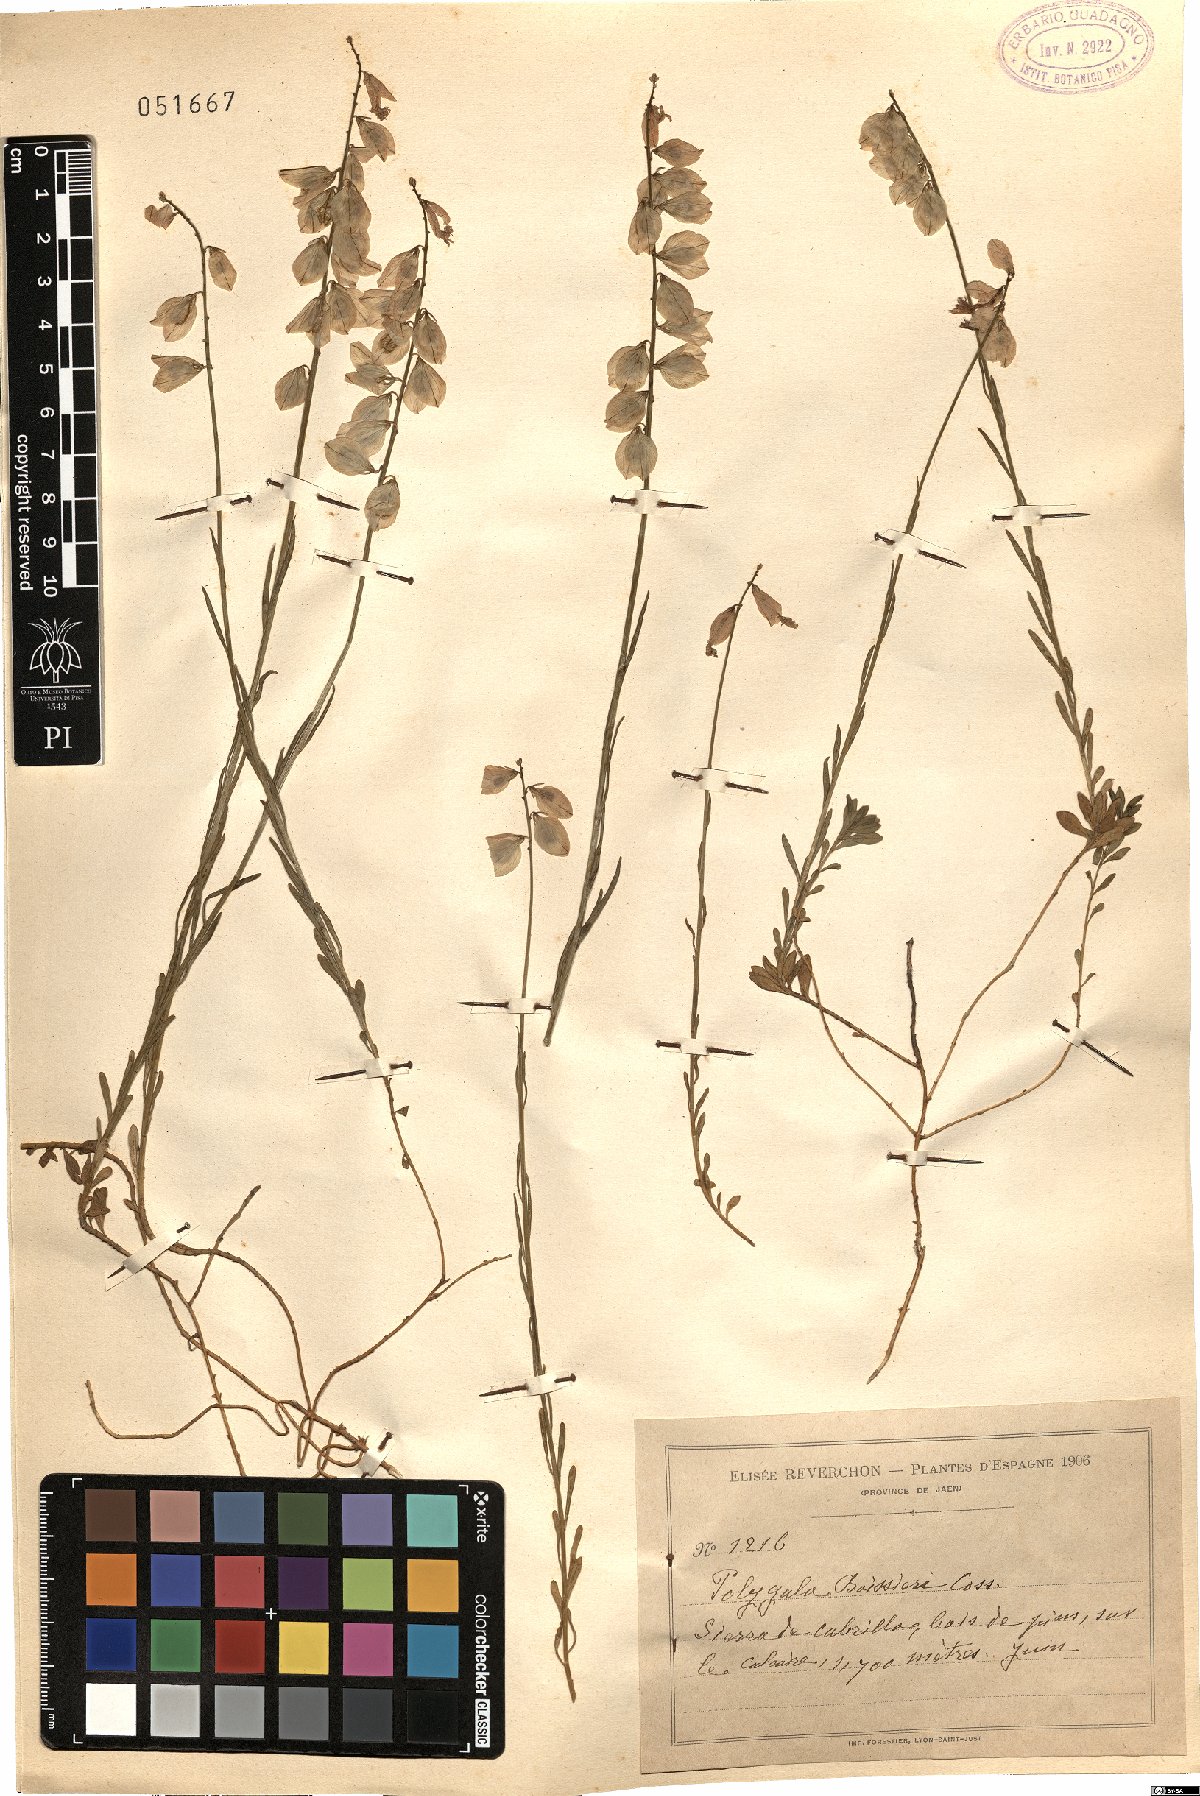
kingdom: Plantae
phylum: Tracheophyta
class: Magnoliopsida
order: Fabales
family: Polygalaceae
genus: Polygala
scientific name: Polygala boissieri
